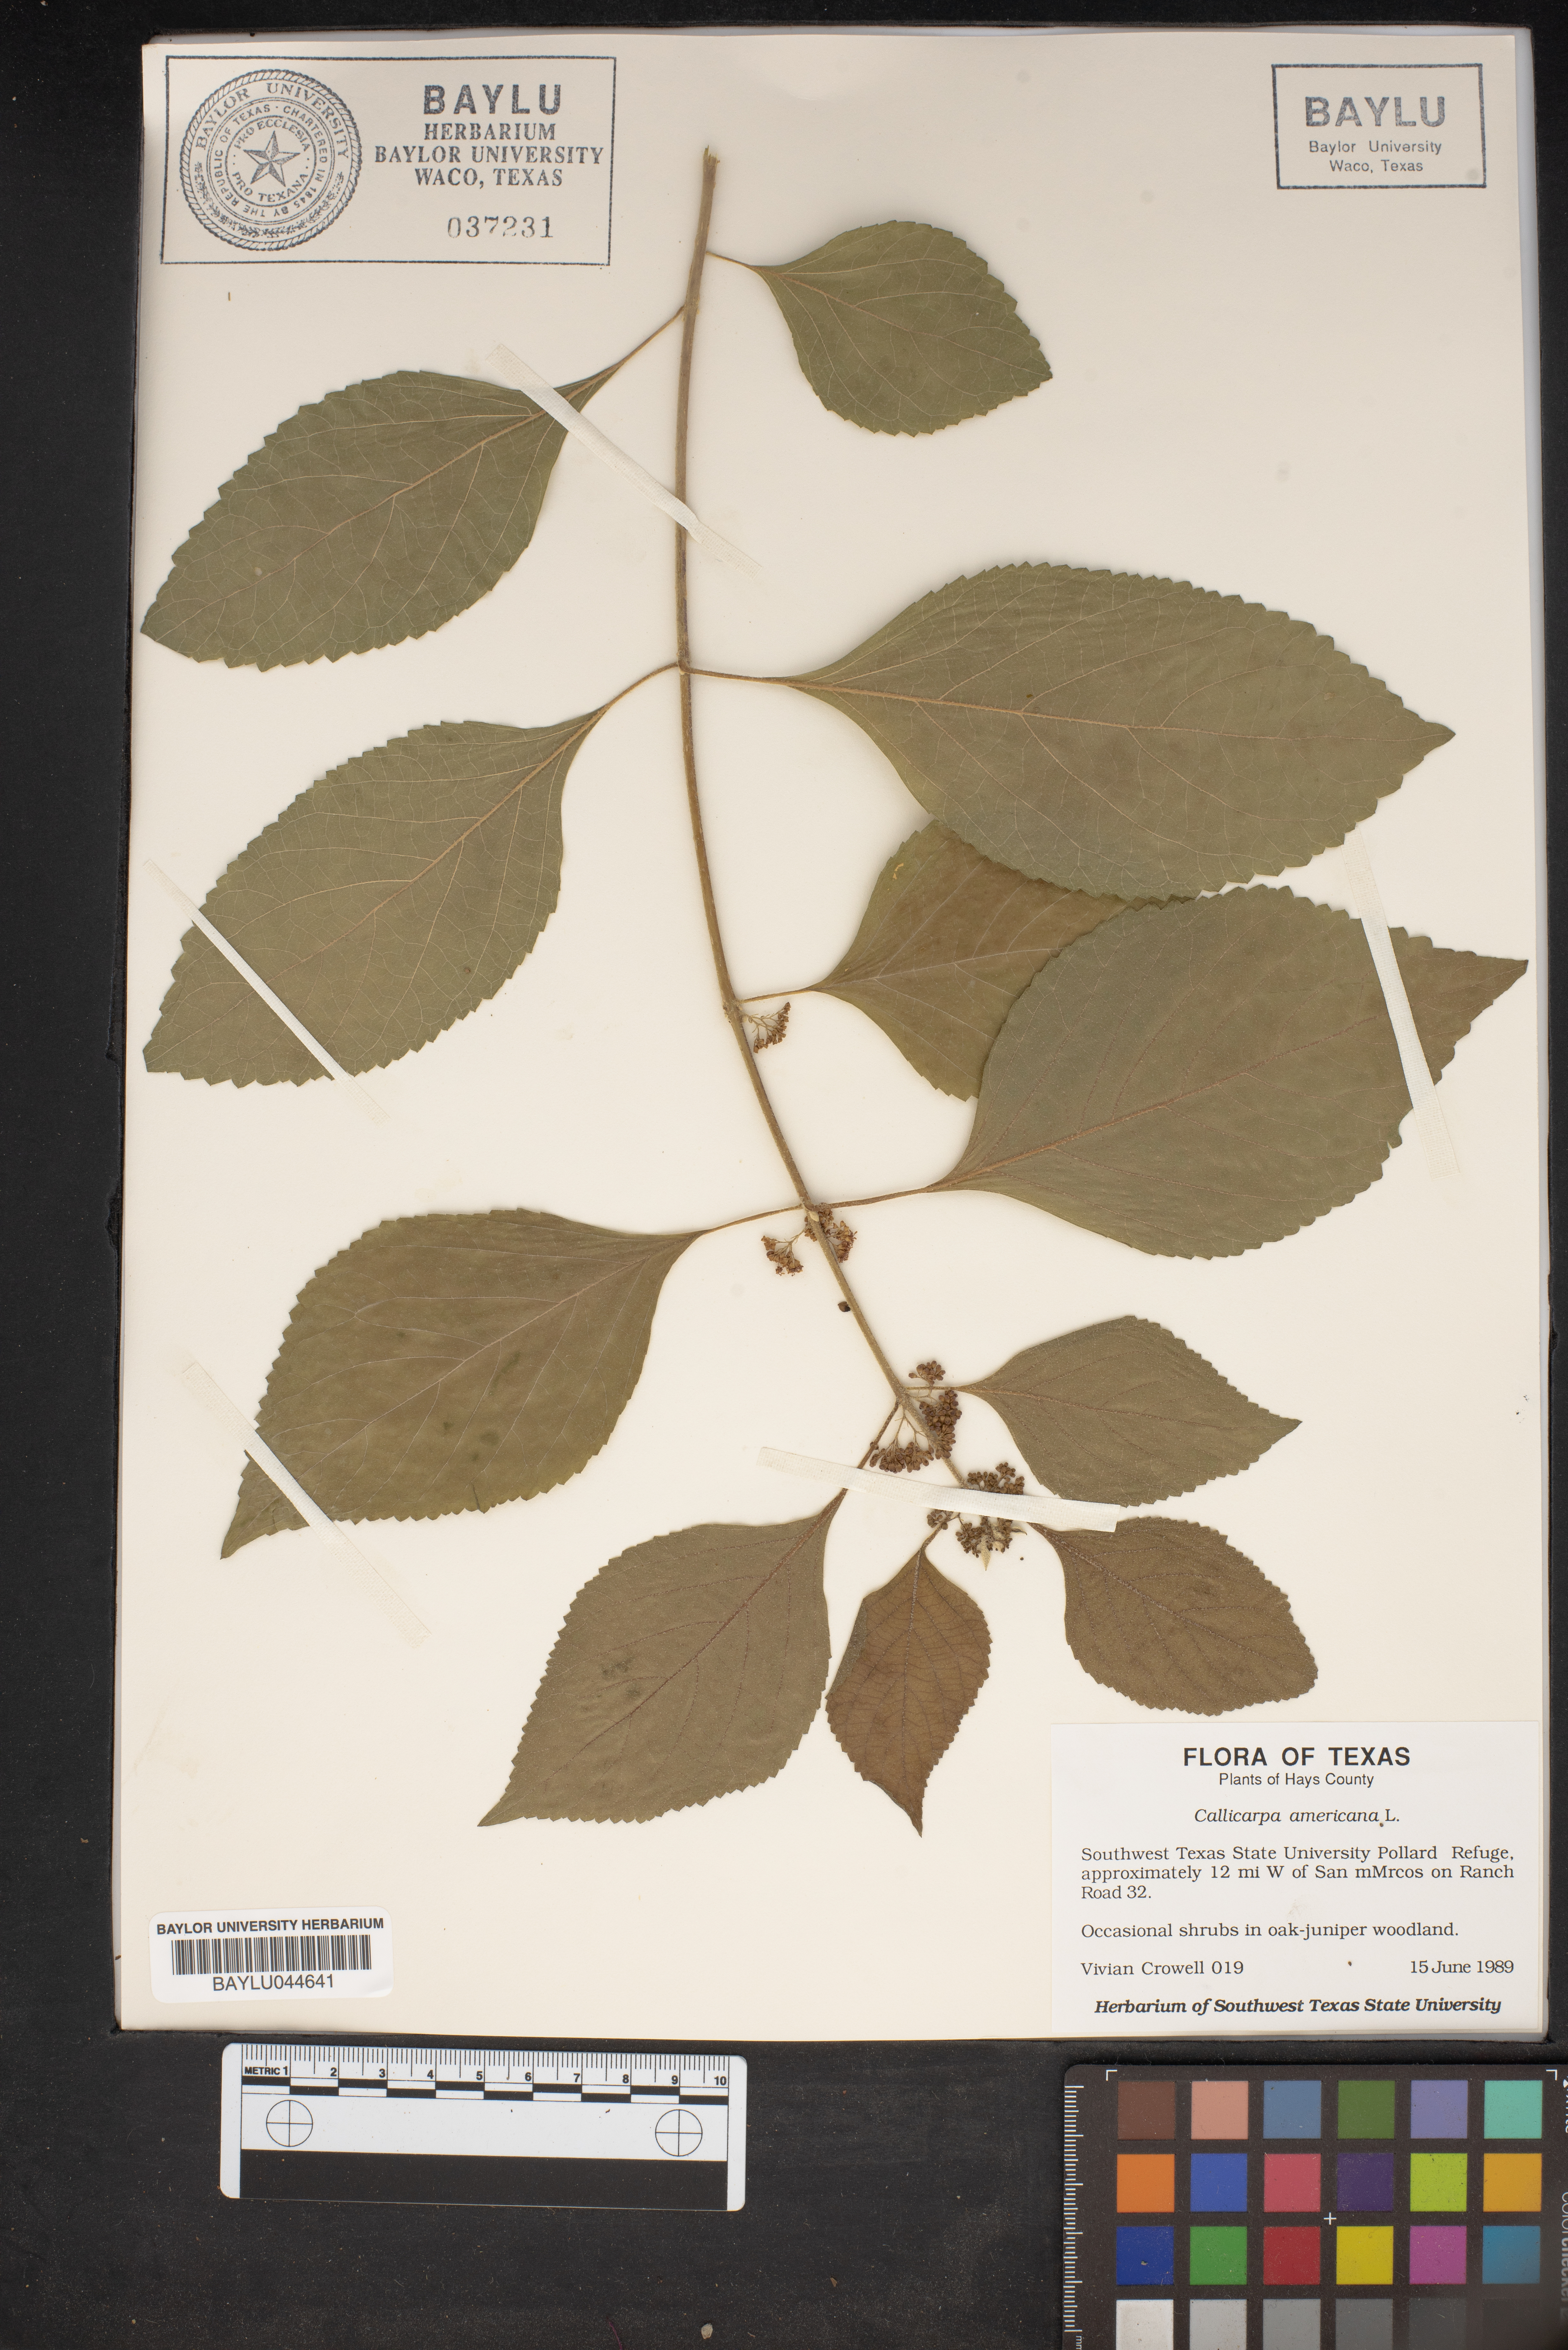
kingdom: Plantae
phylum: Tracheophyta
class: Magnoliopsida
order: Lamiales
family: Lamiaceae
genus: Callicarpa
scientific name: Callicarpa americana
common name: American beautyberry
